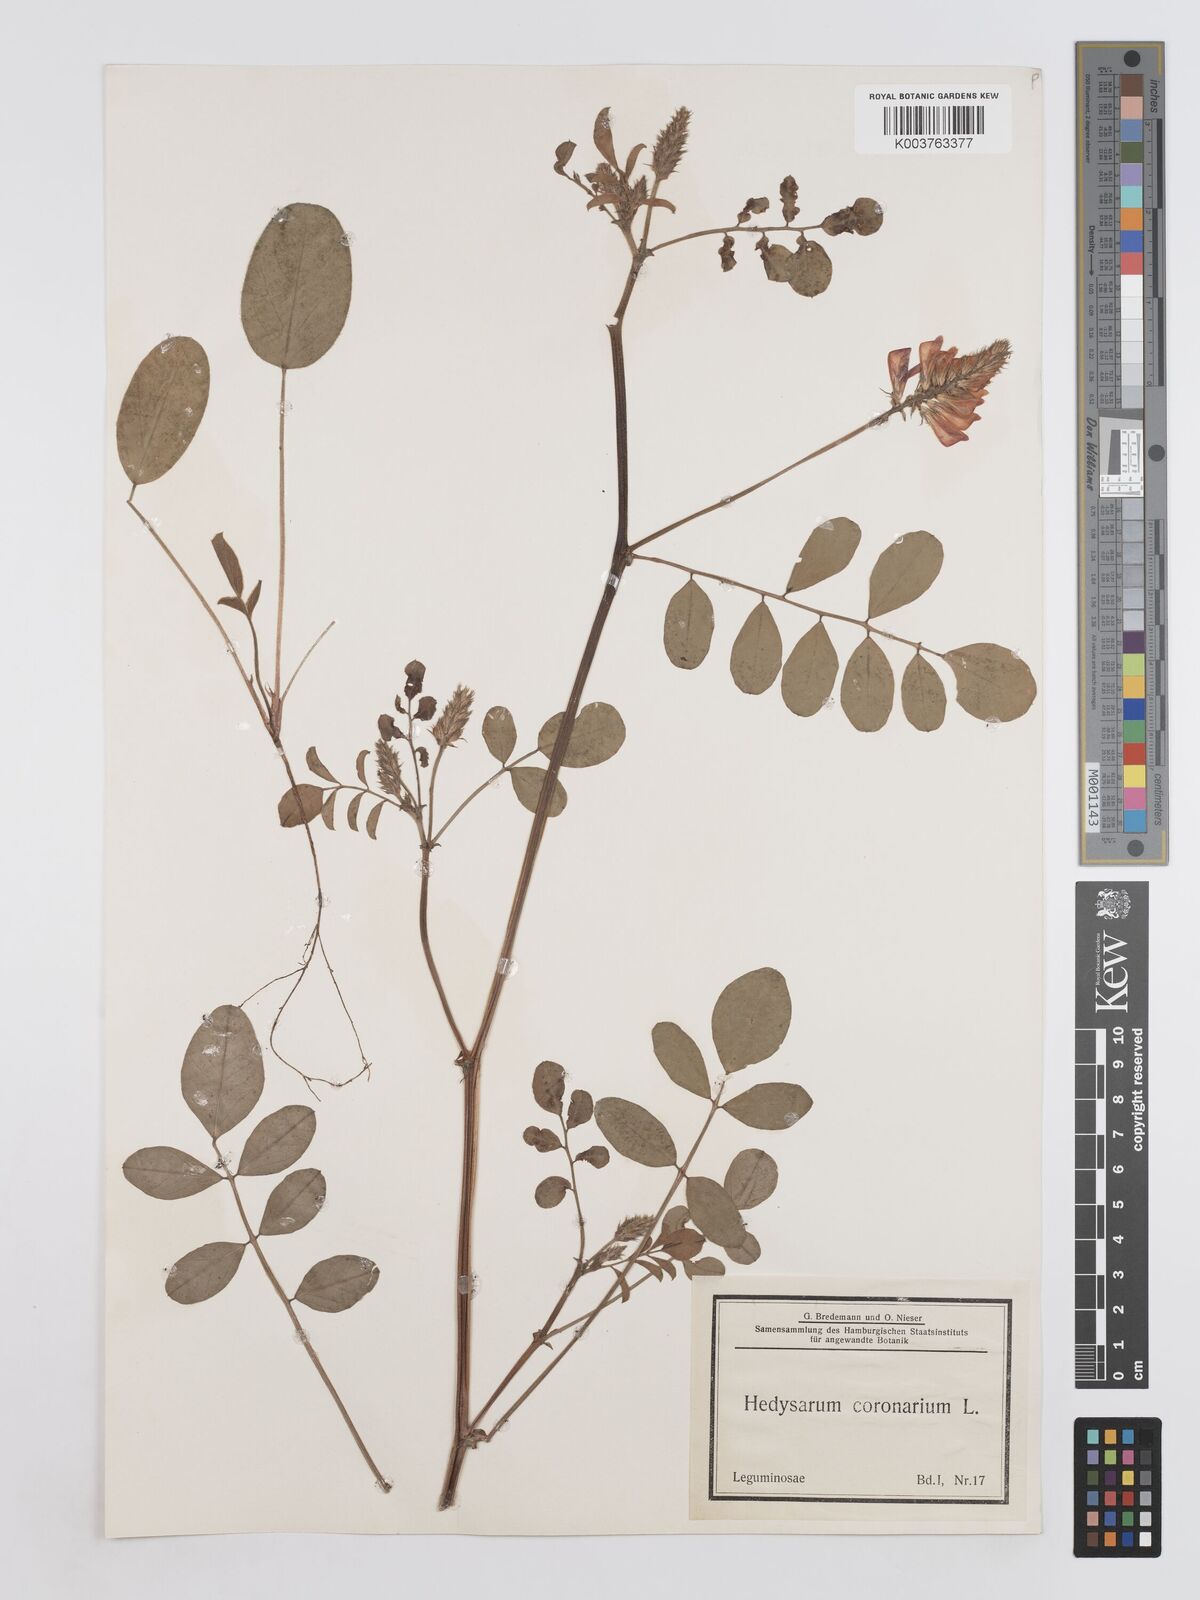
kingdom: Plantae
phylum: Tracheophyta
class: Magnoliopsida
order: Fabales
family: Fabaceae
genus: Sulla
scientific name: Sulla coronaria
